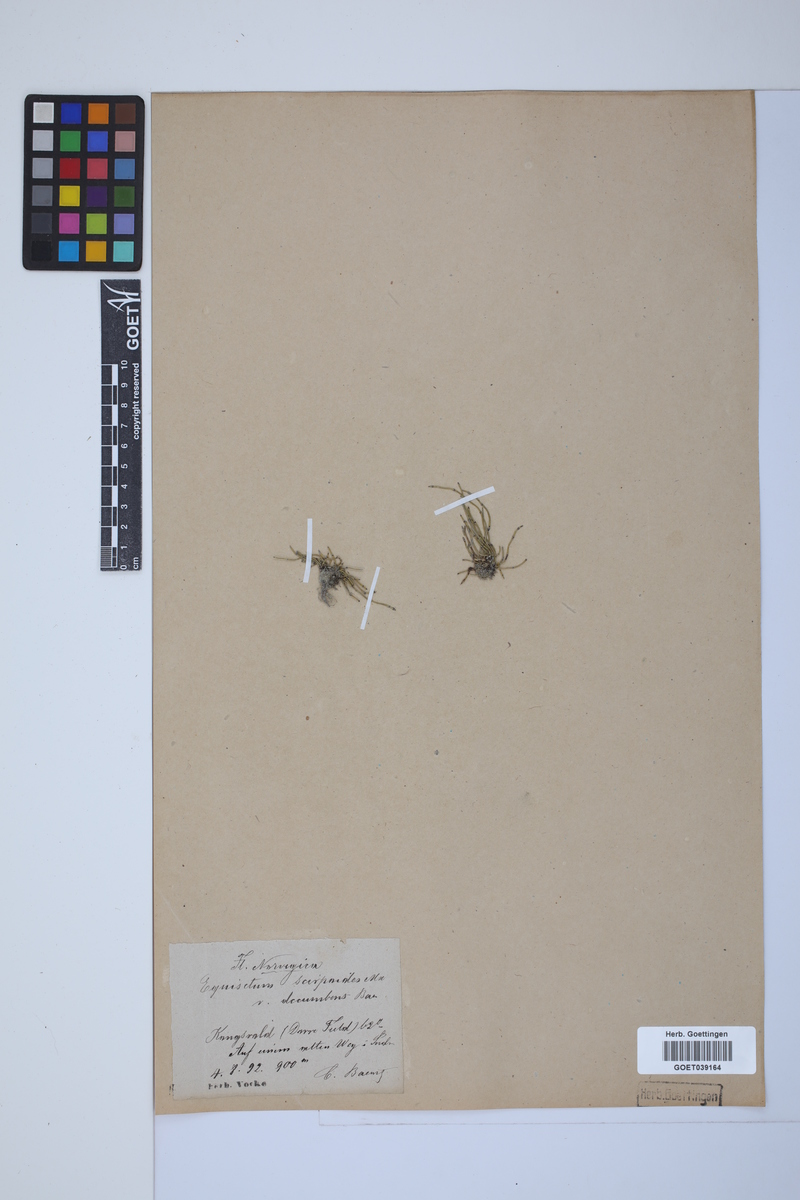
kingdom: Plantae
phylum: Tracheophyta
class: Polypodiopsida
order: Equisetales
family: Equisetaceae
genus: Equisetum
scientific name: Equisetum scirpoides
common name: Delicate horsetail
